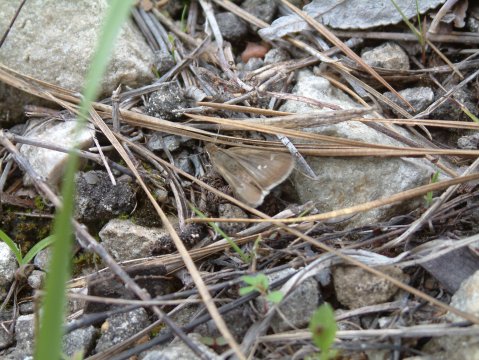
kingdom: Animalia
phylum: Arthropoda
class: Insecta
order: Lepidoptera
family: Hesperiidae
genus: Nastra
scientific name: Nastra lherminier
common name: Swarthy Skipper
